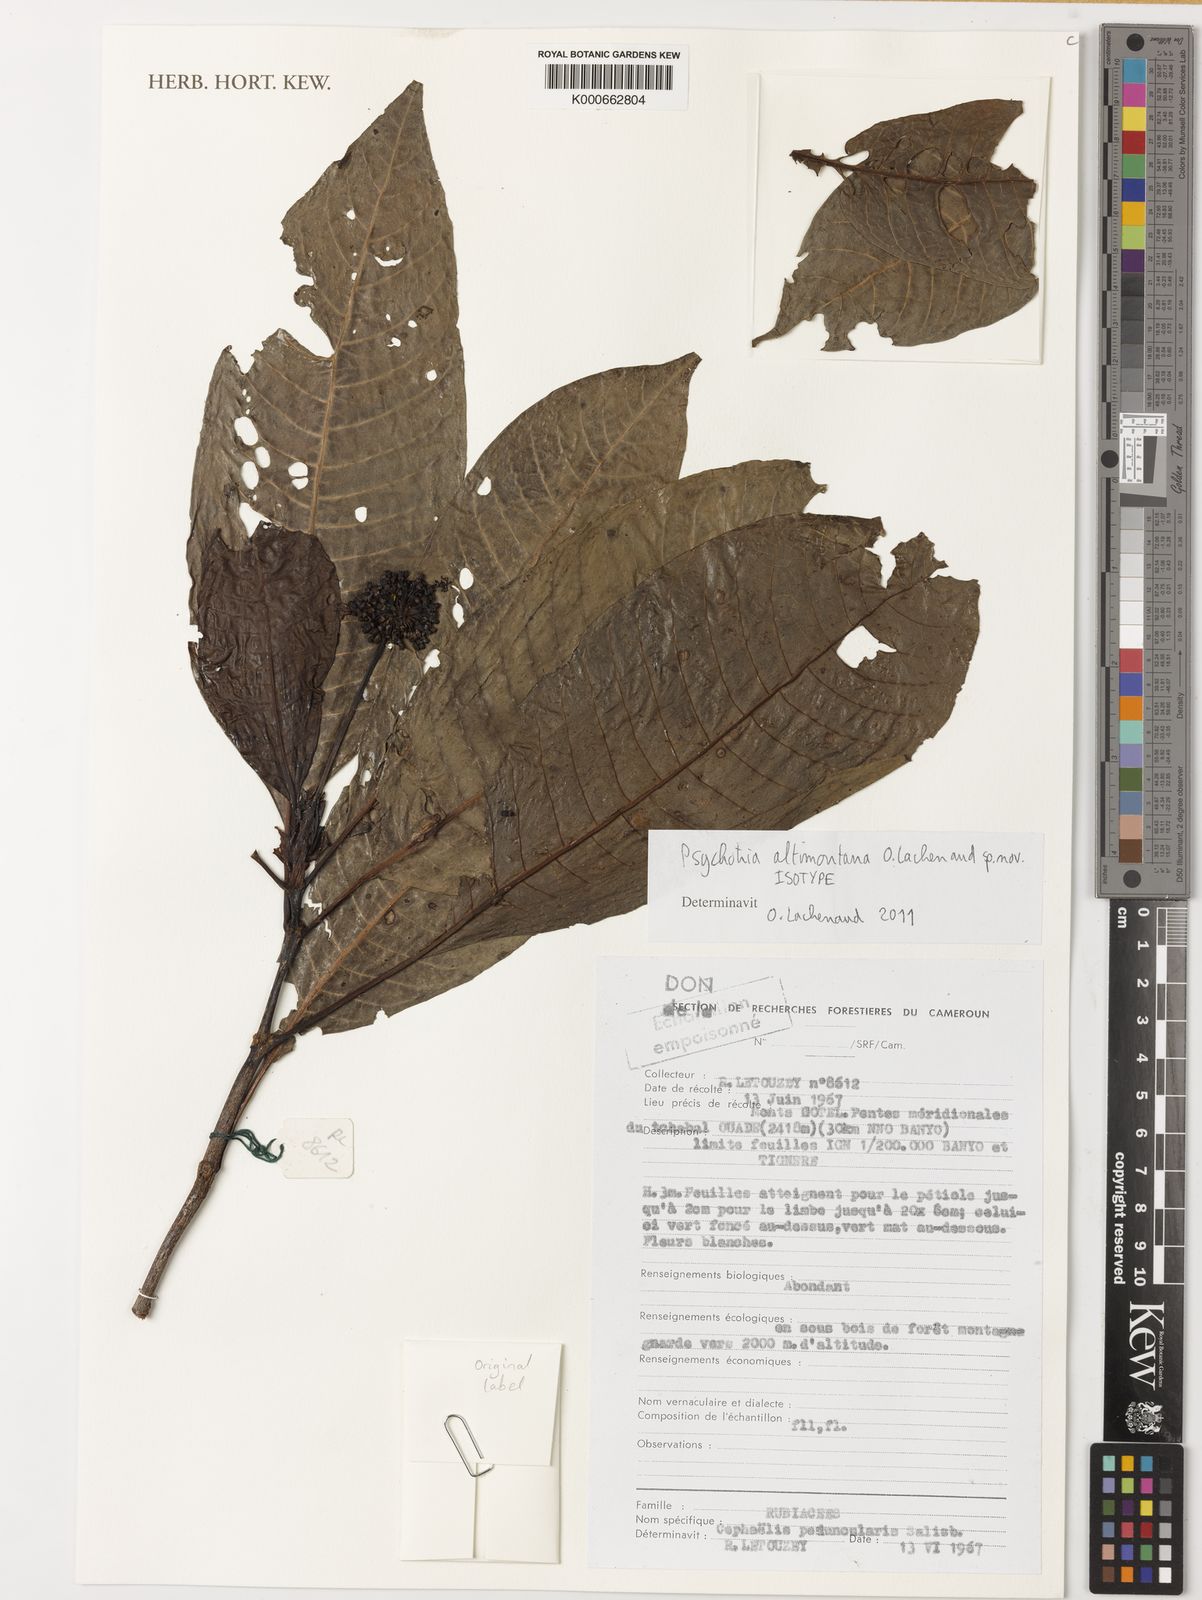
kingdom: Plantae
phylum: Tracheophyta
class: Magnoliopsida
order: Gentianales
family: Rubiaceae
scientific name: Rubiaceae
